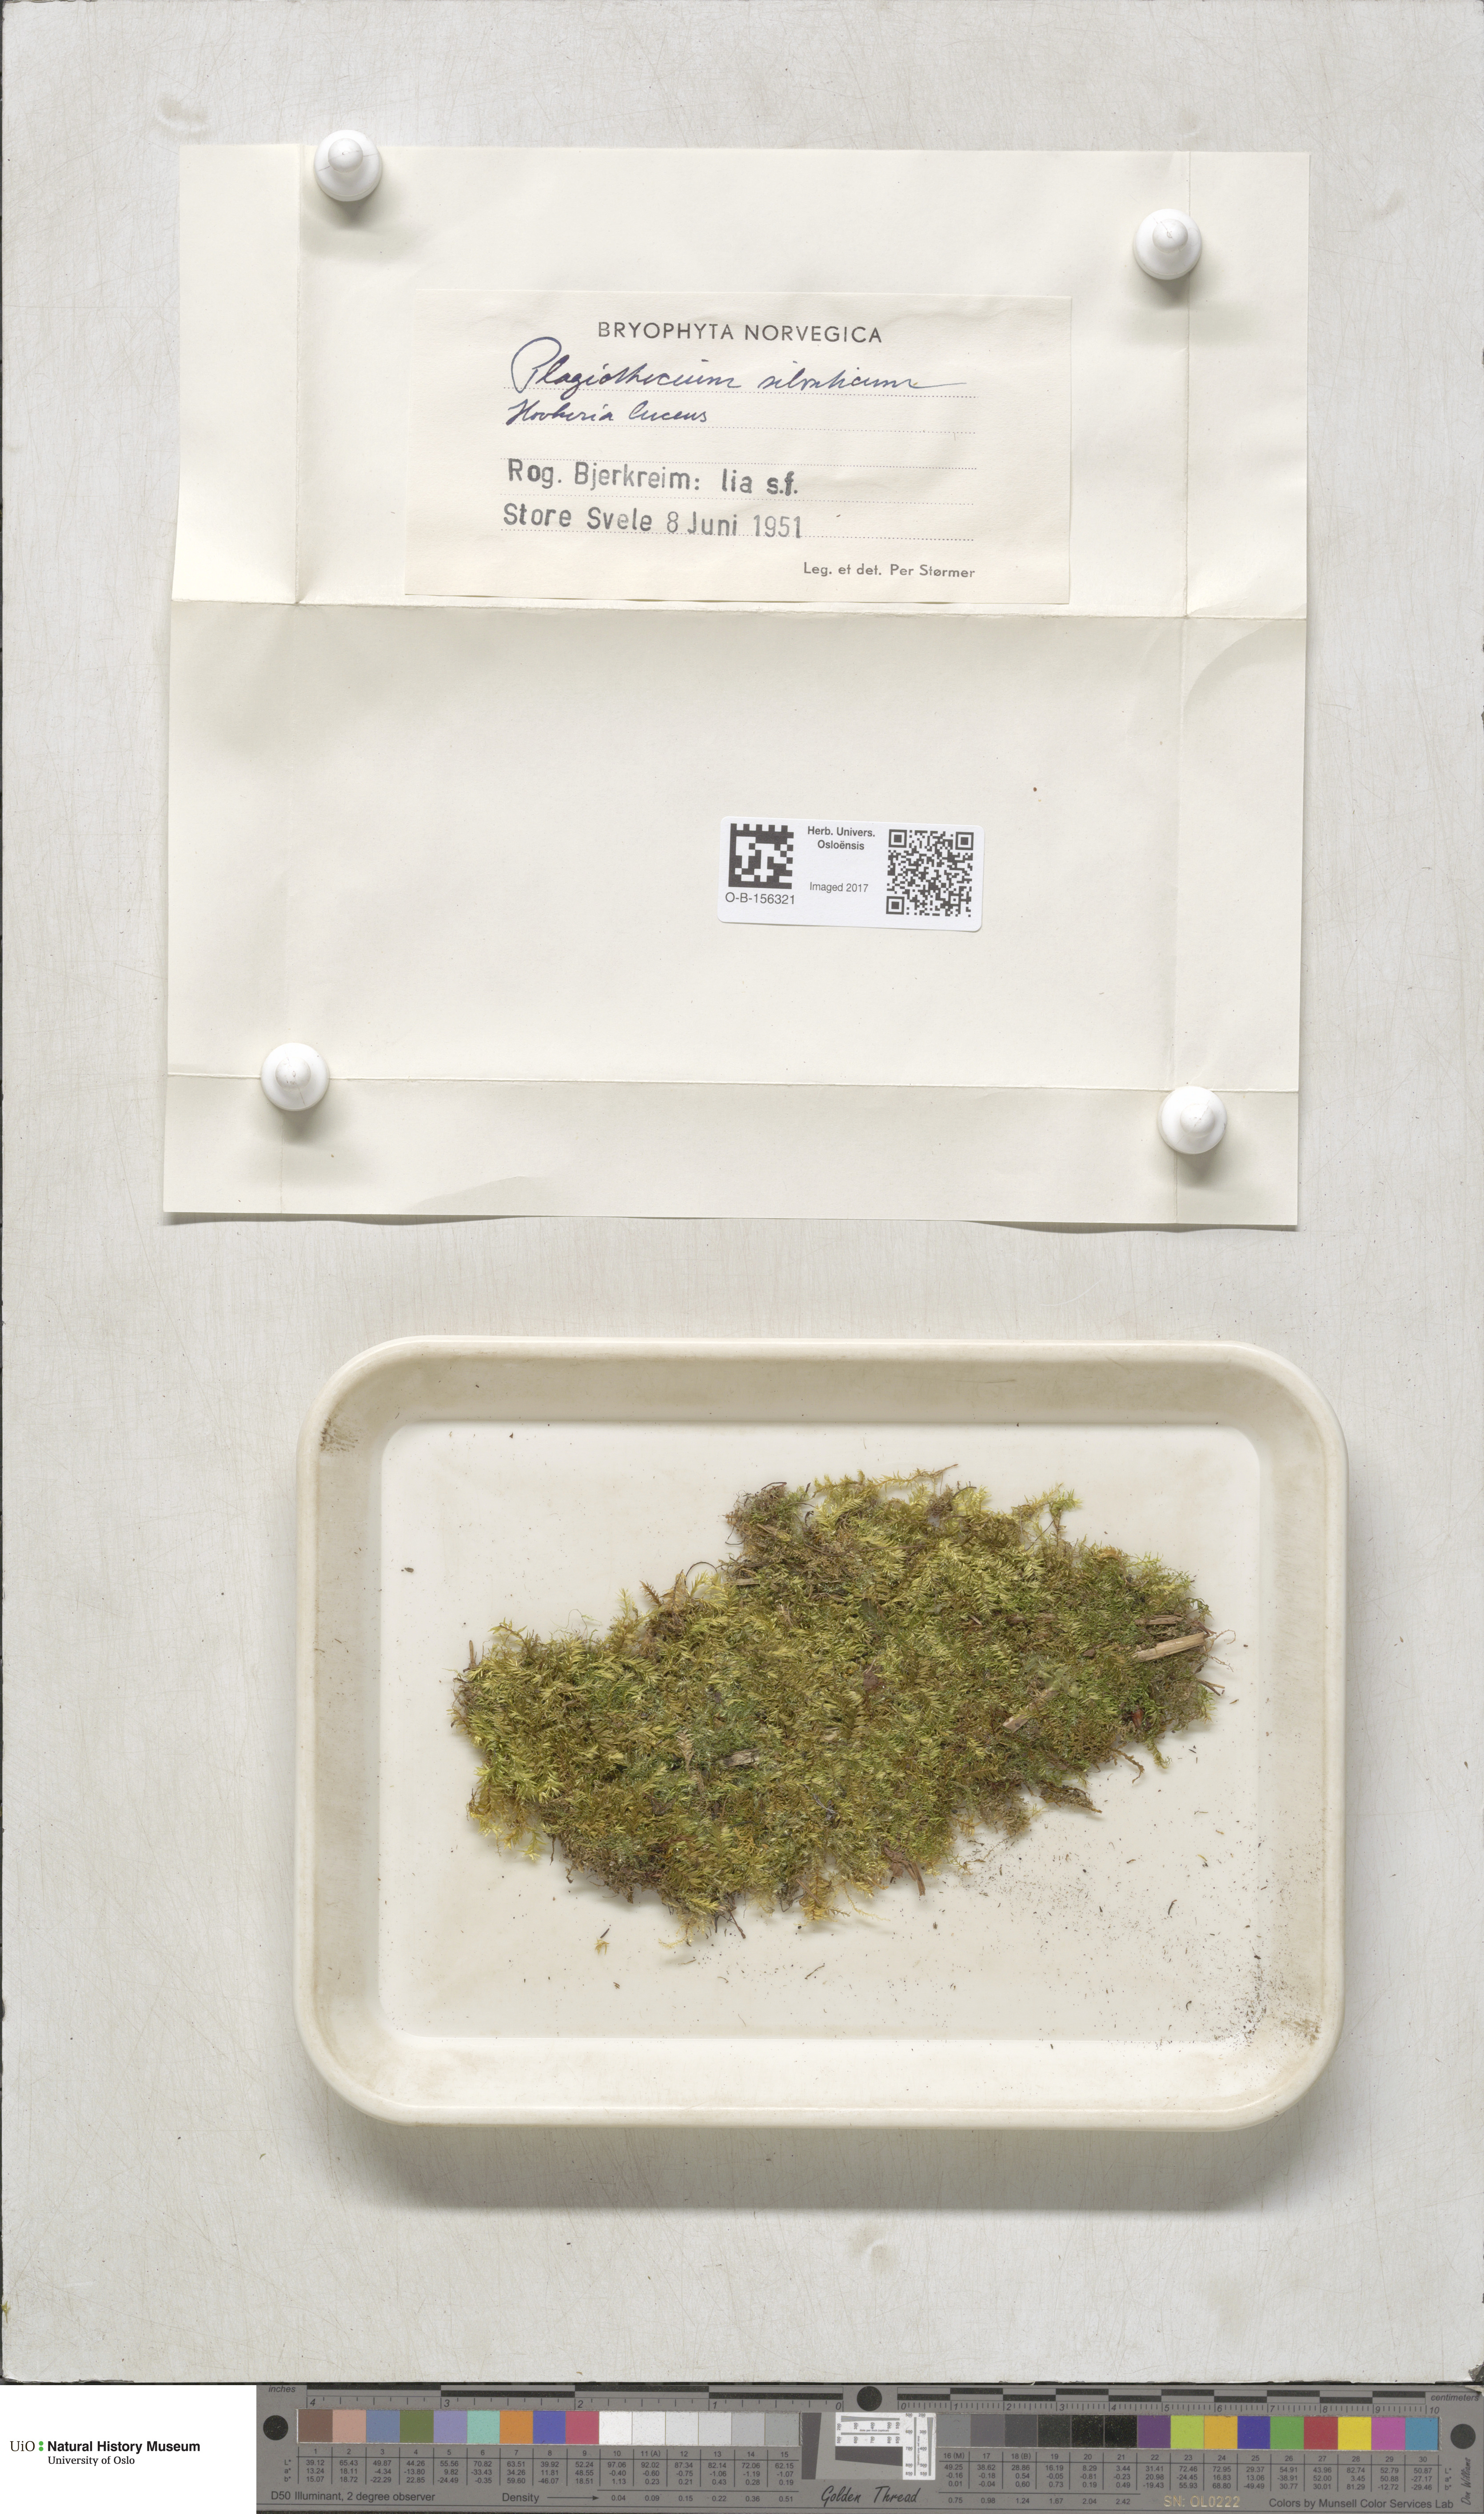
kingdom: Plantae
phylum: Bryophyta
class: Bryopsida
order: Hypnales
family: Plagiotheciaceae
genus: Plagiothecium
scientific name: Plagiothecium nemorale
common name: Woodsy silk-moss
